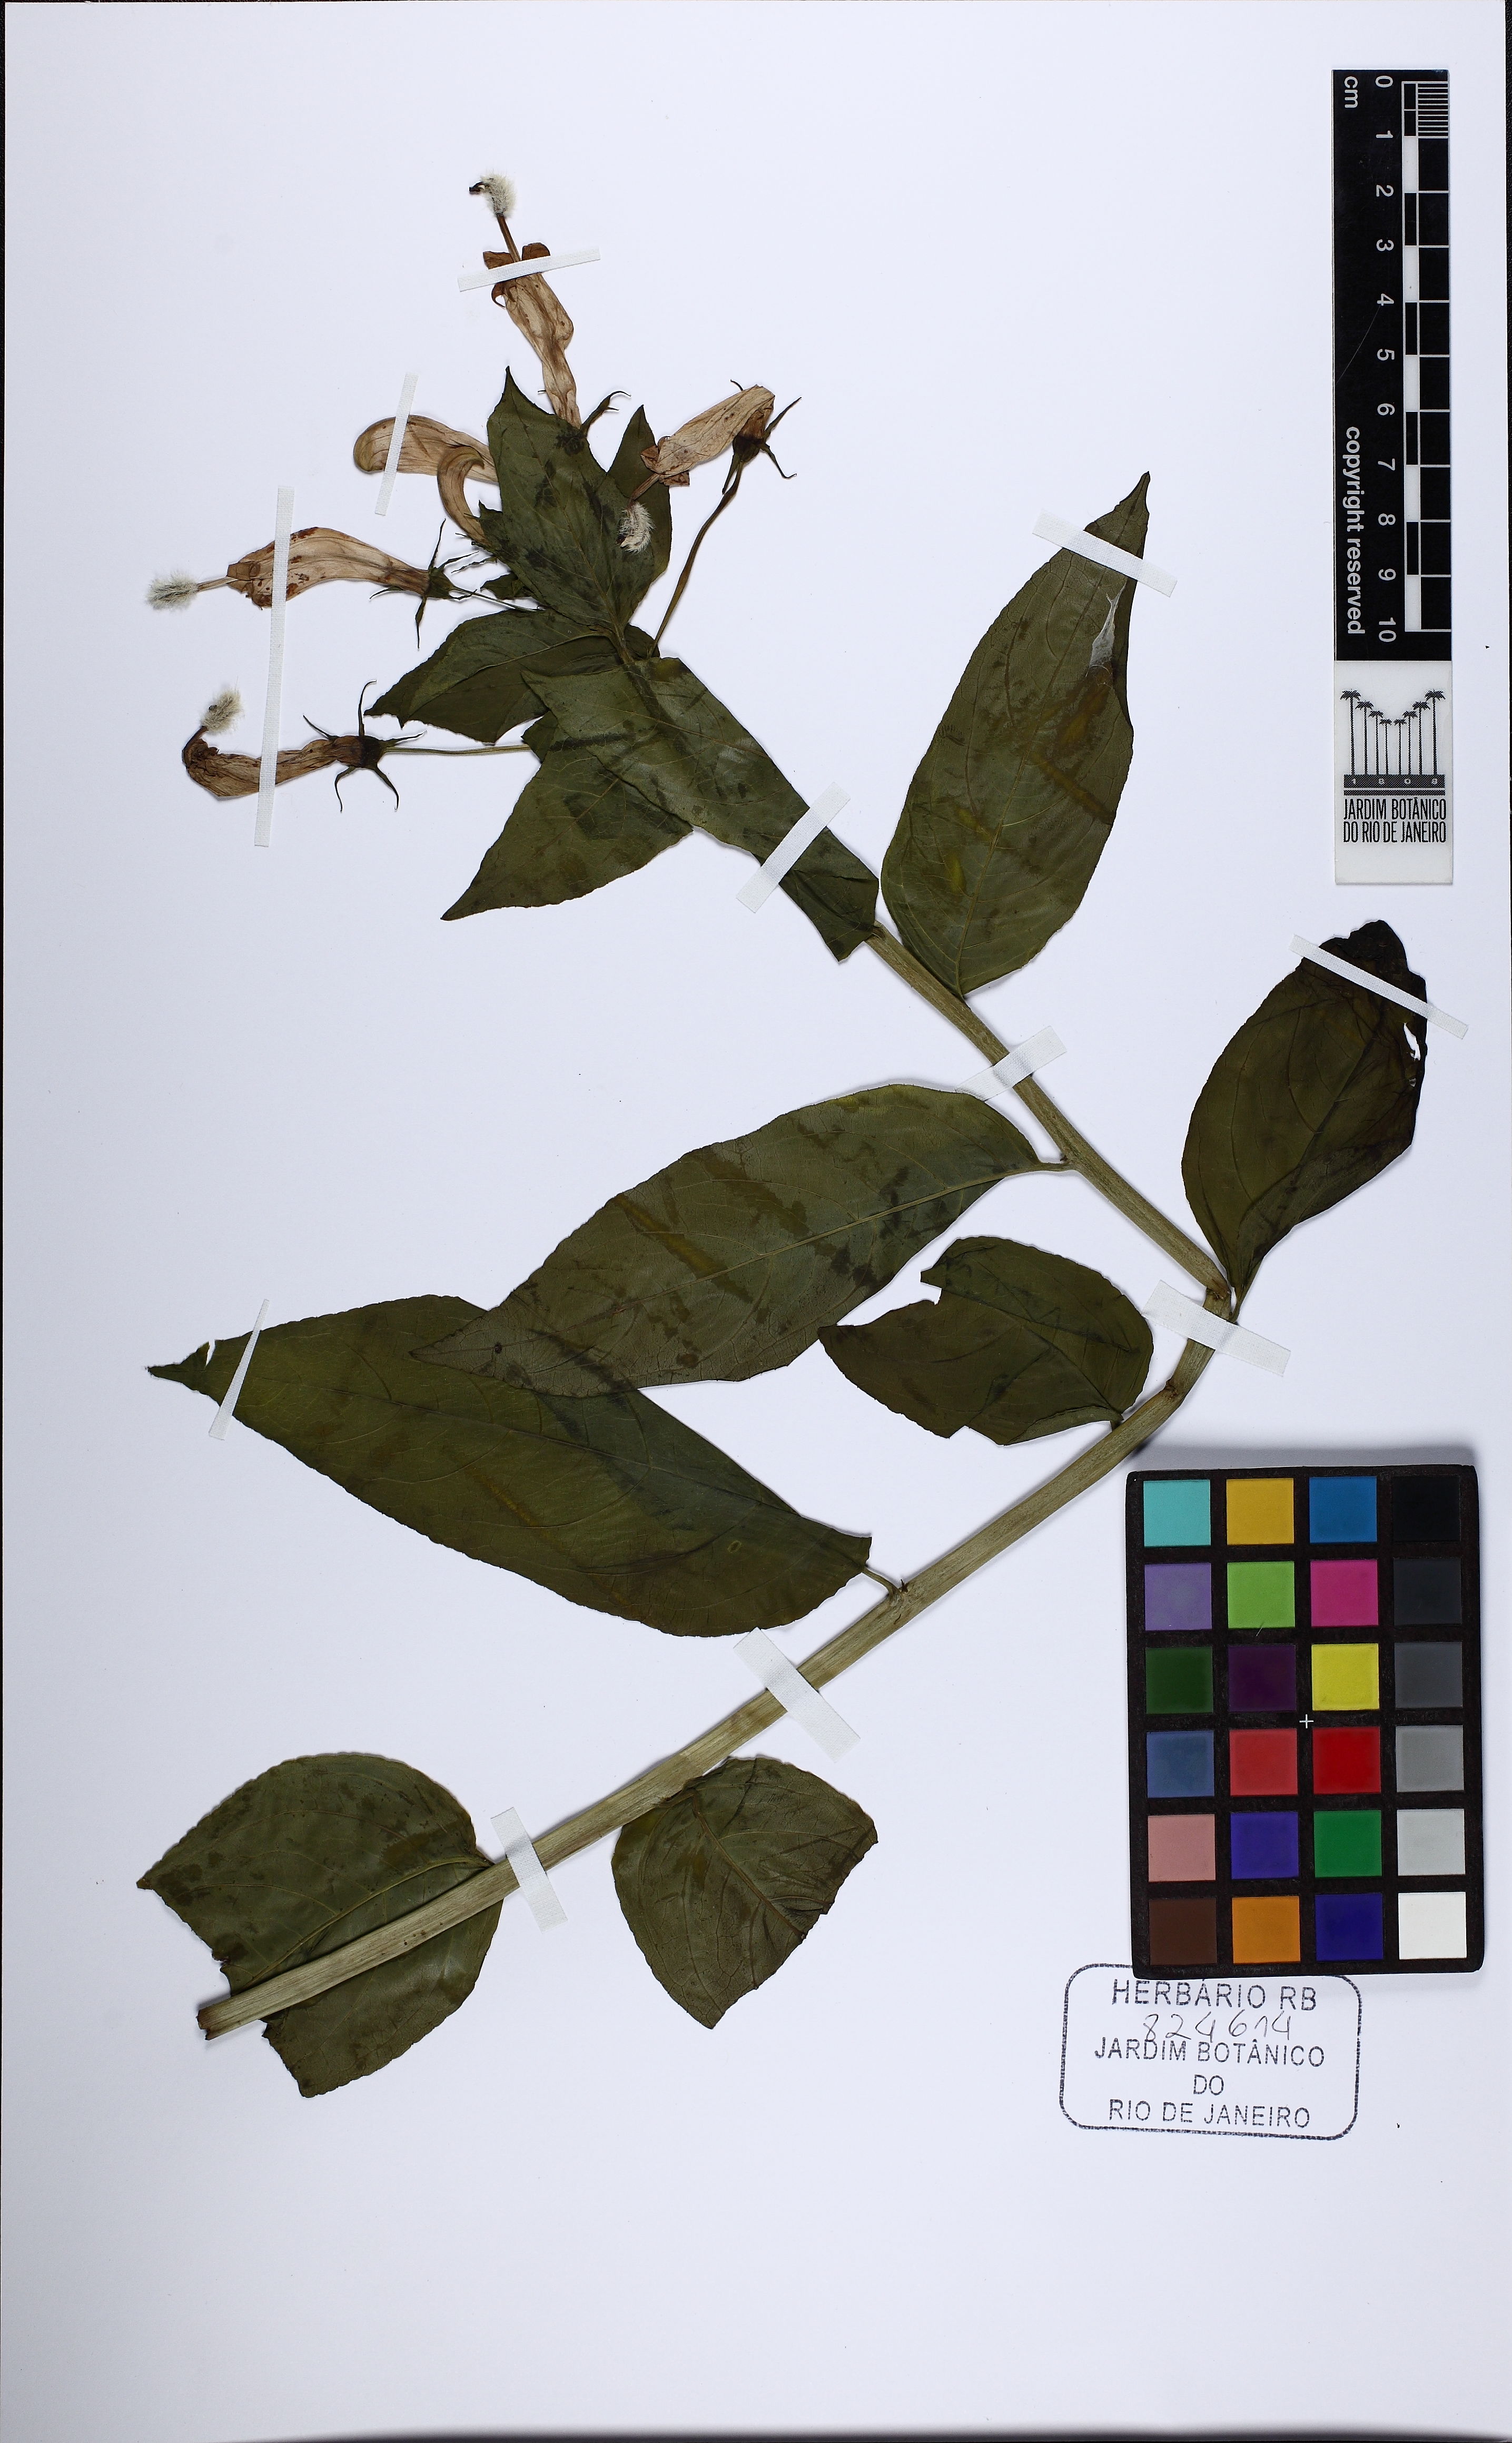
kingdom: Plantae
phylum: Tracheophyta
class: Magnoliopsida
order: Asterales
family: Campanulaceae
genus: Centropogon
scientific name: Centropogon cornutus
